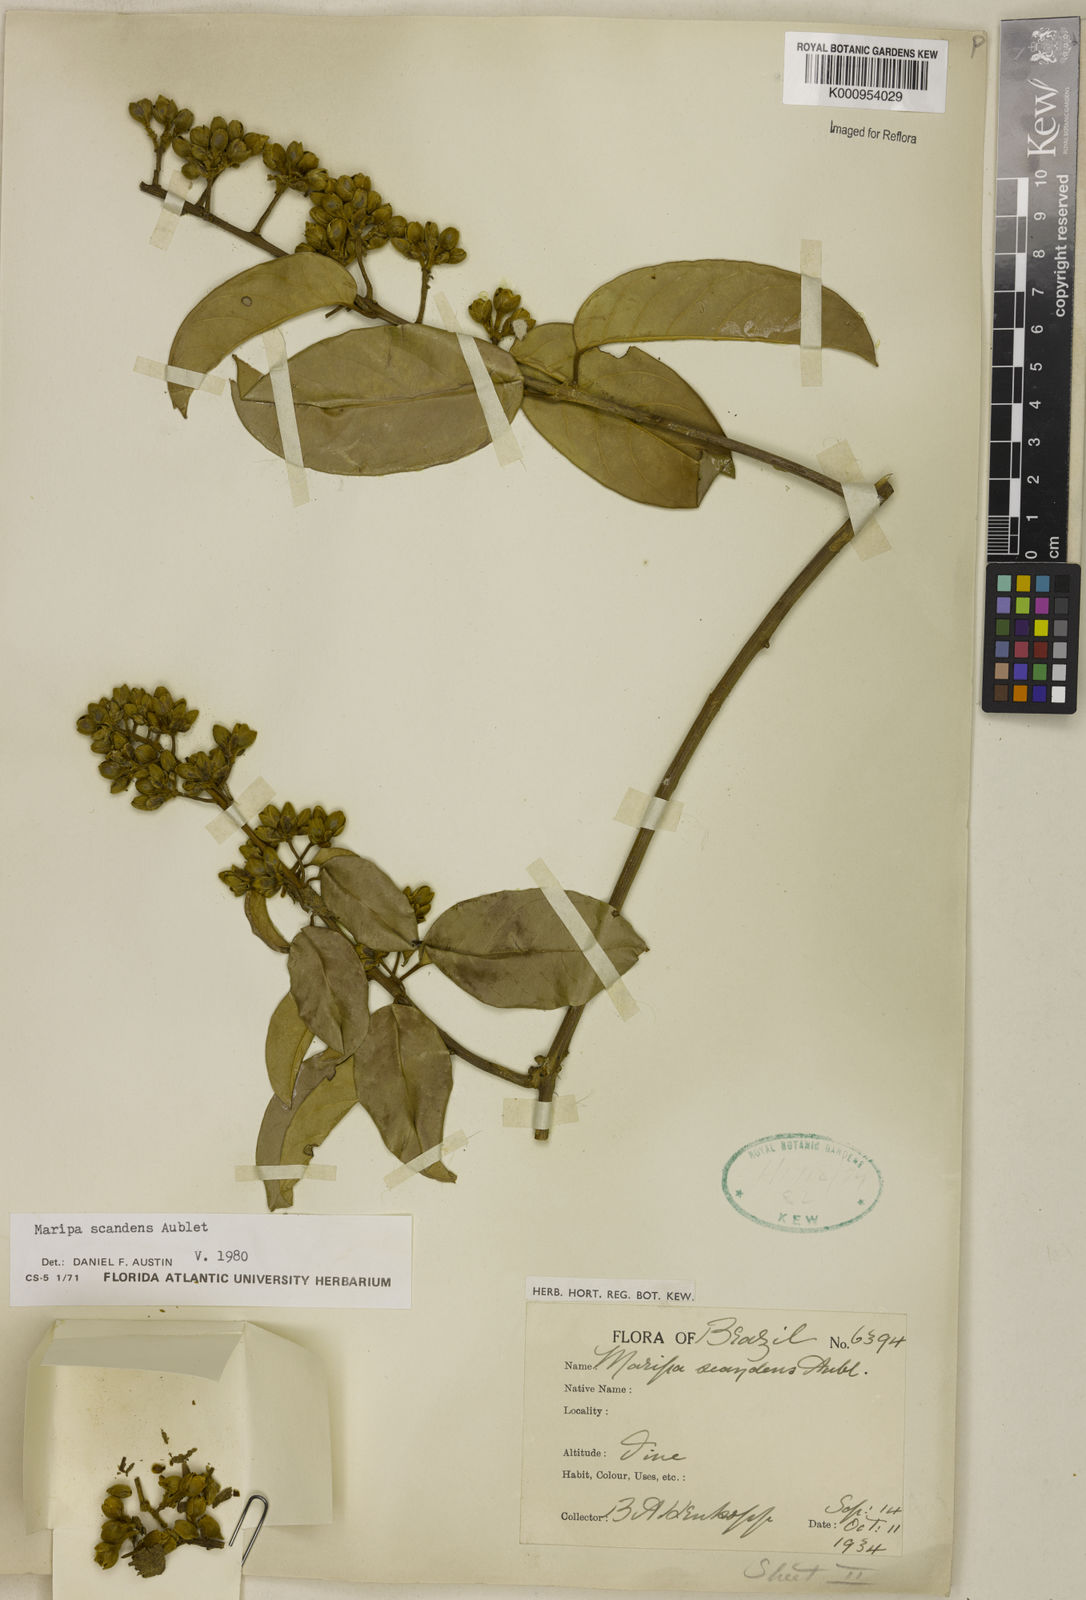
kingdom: Plantae
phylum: Tracheophyta
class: Magnoliopsida
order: Solanales
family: Convolvulaceae
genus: Maripa
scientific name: Maripa scandens
